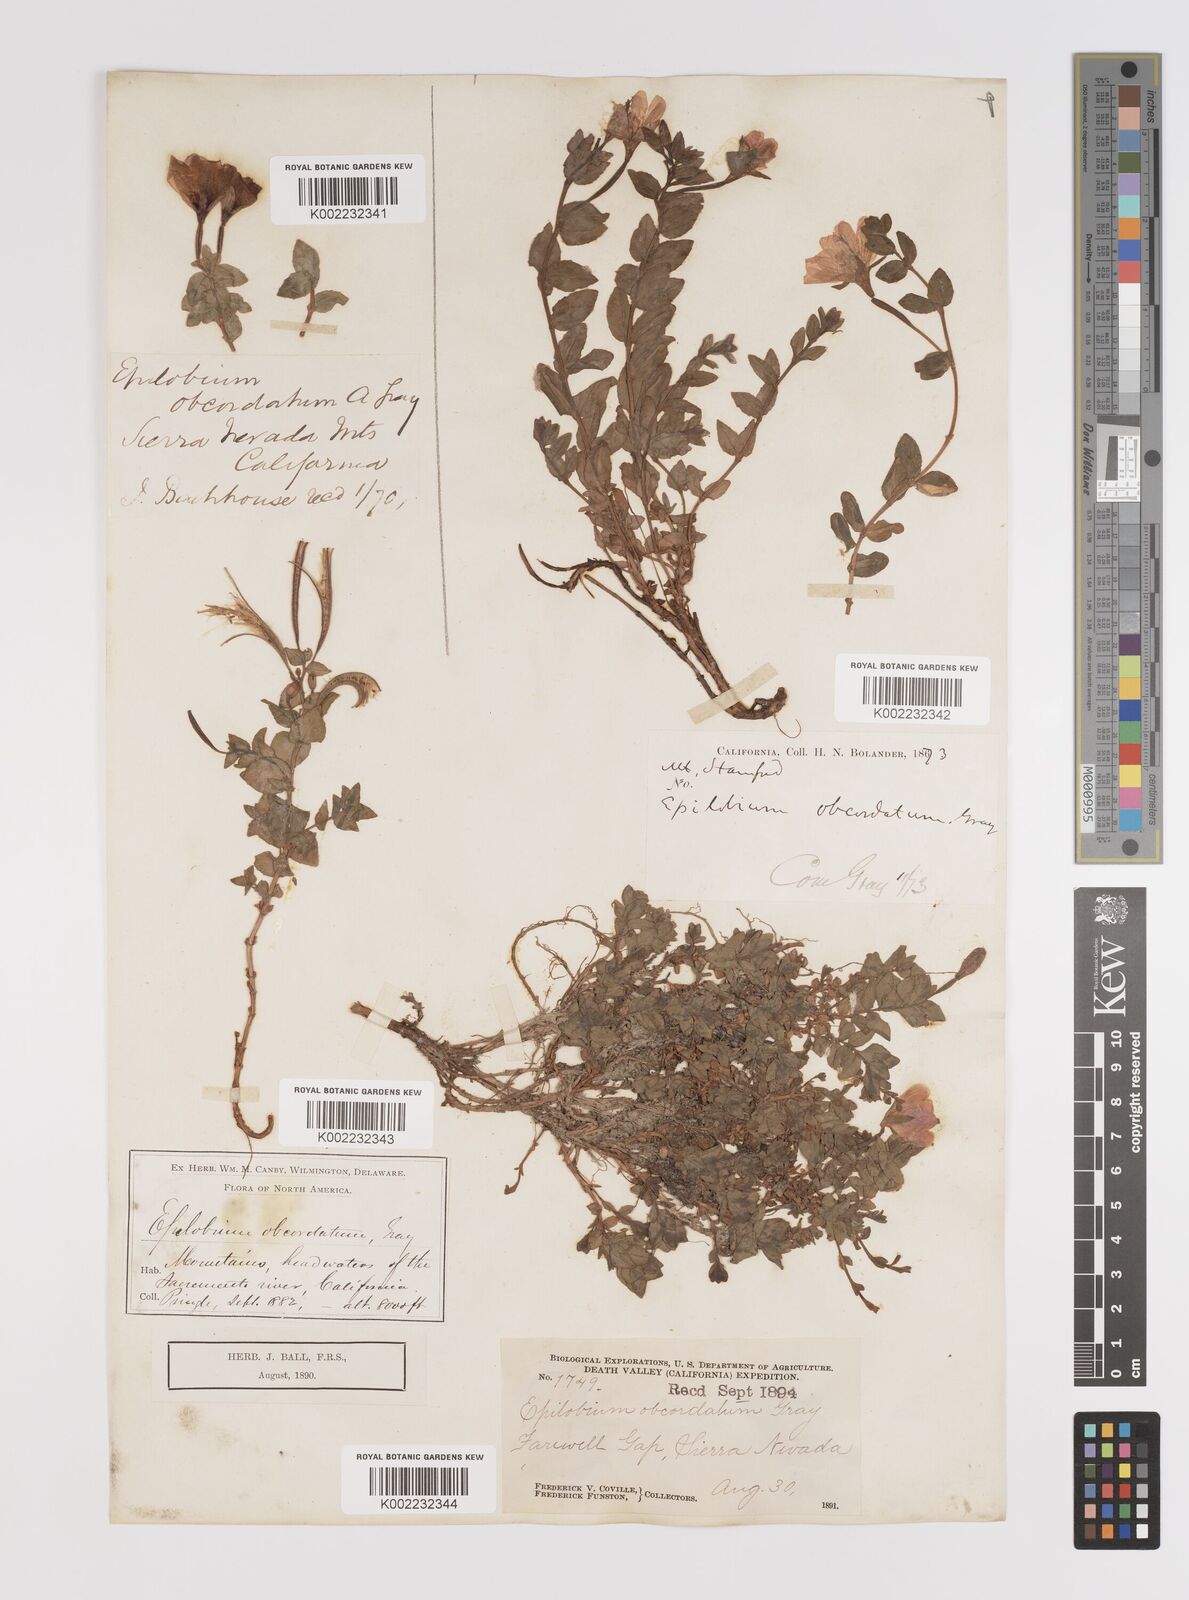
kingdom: Plantae
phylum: Tracheophyta
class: Magnoliopsida
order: Myrtales
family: Onagraceae
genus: Epilobium
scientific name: Epilobium obcordatum
